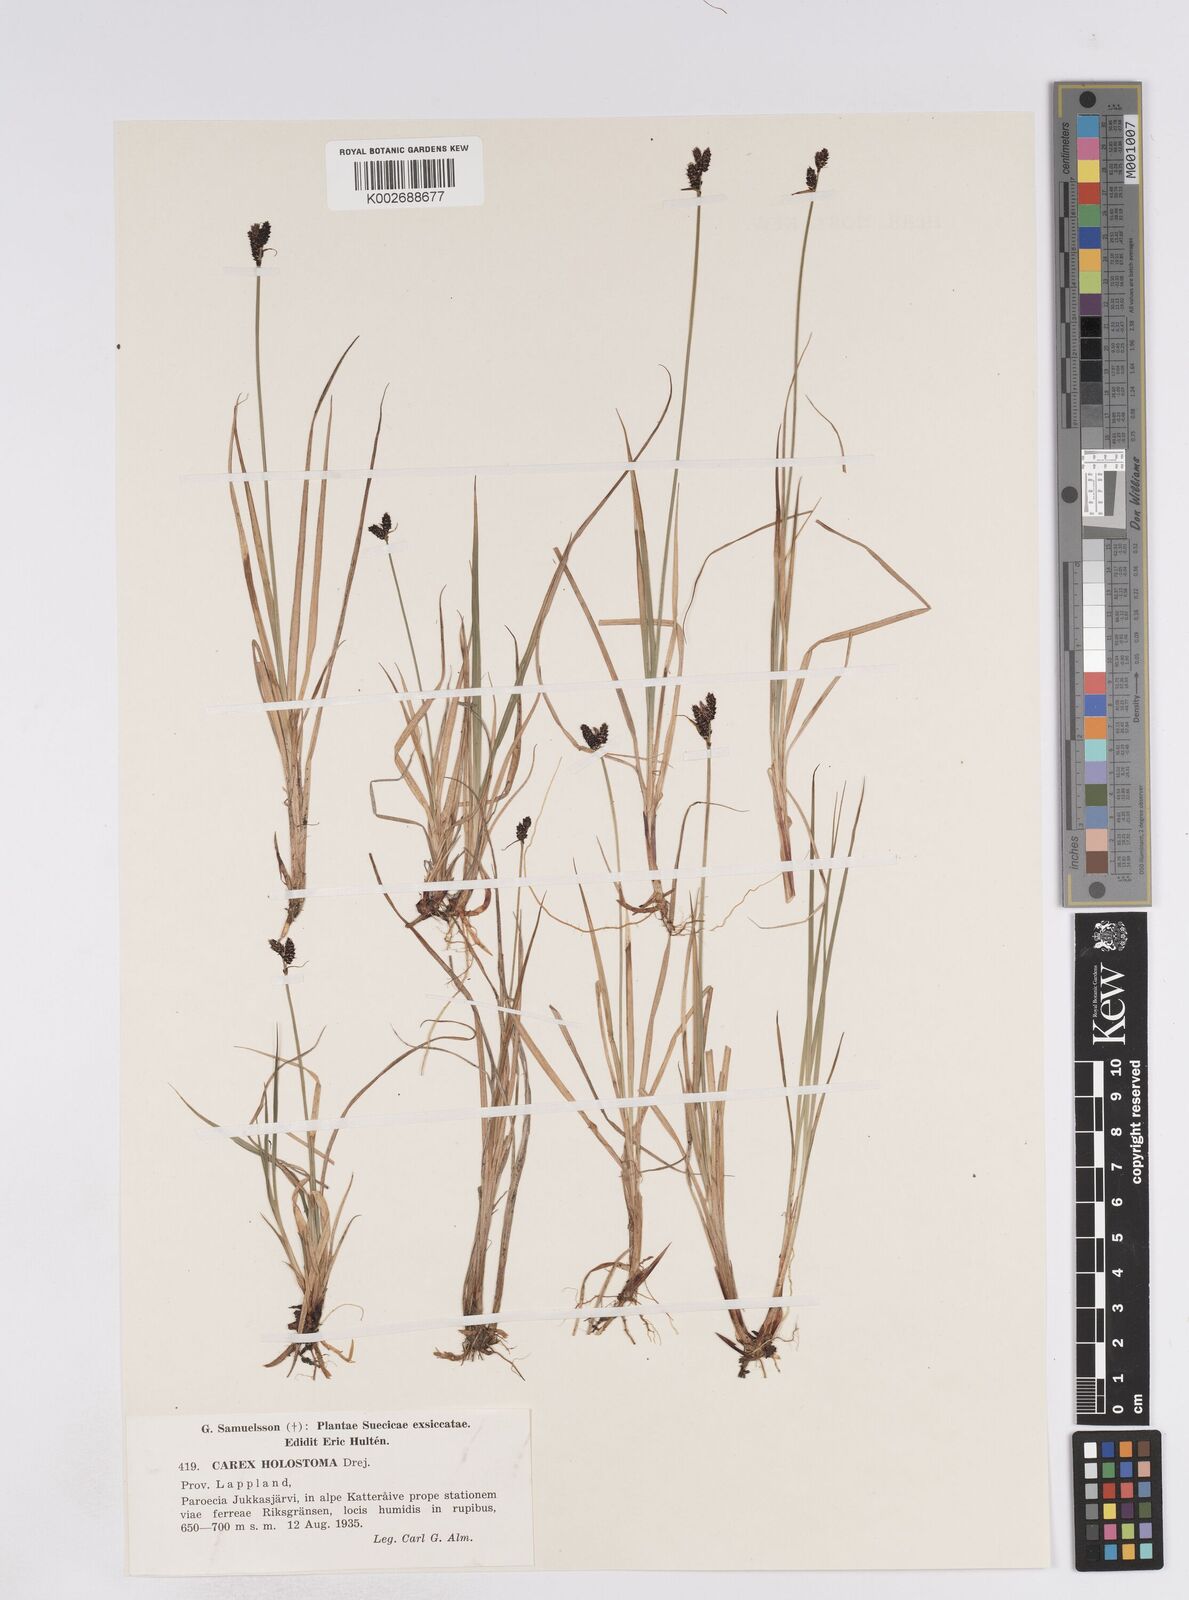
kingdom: Plantae
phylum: Tracheophyta
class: Liliopsida
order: Poales
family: Cyperaceae
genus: Carex
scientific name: Carex holostoma
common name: Arctic marsh sedge
